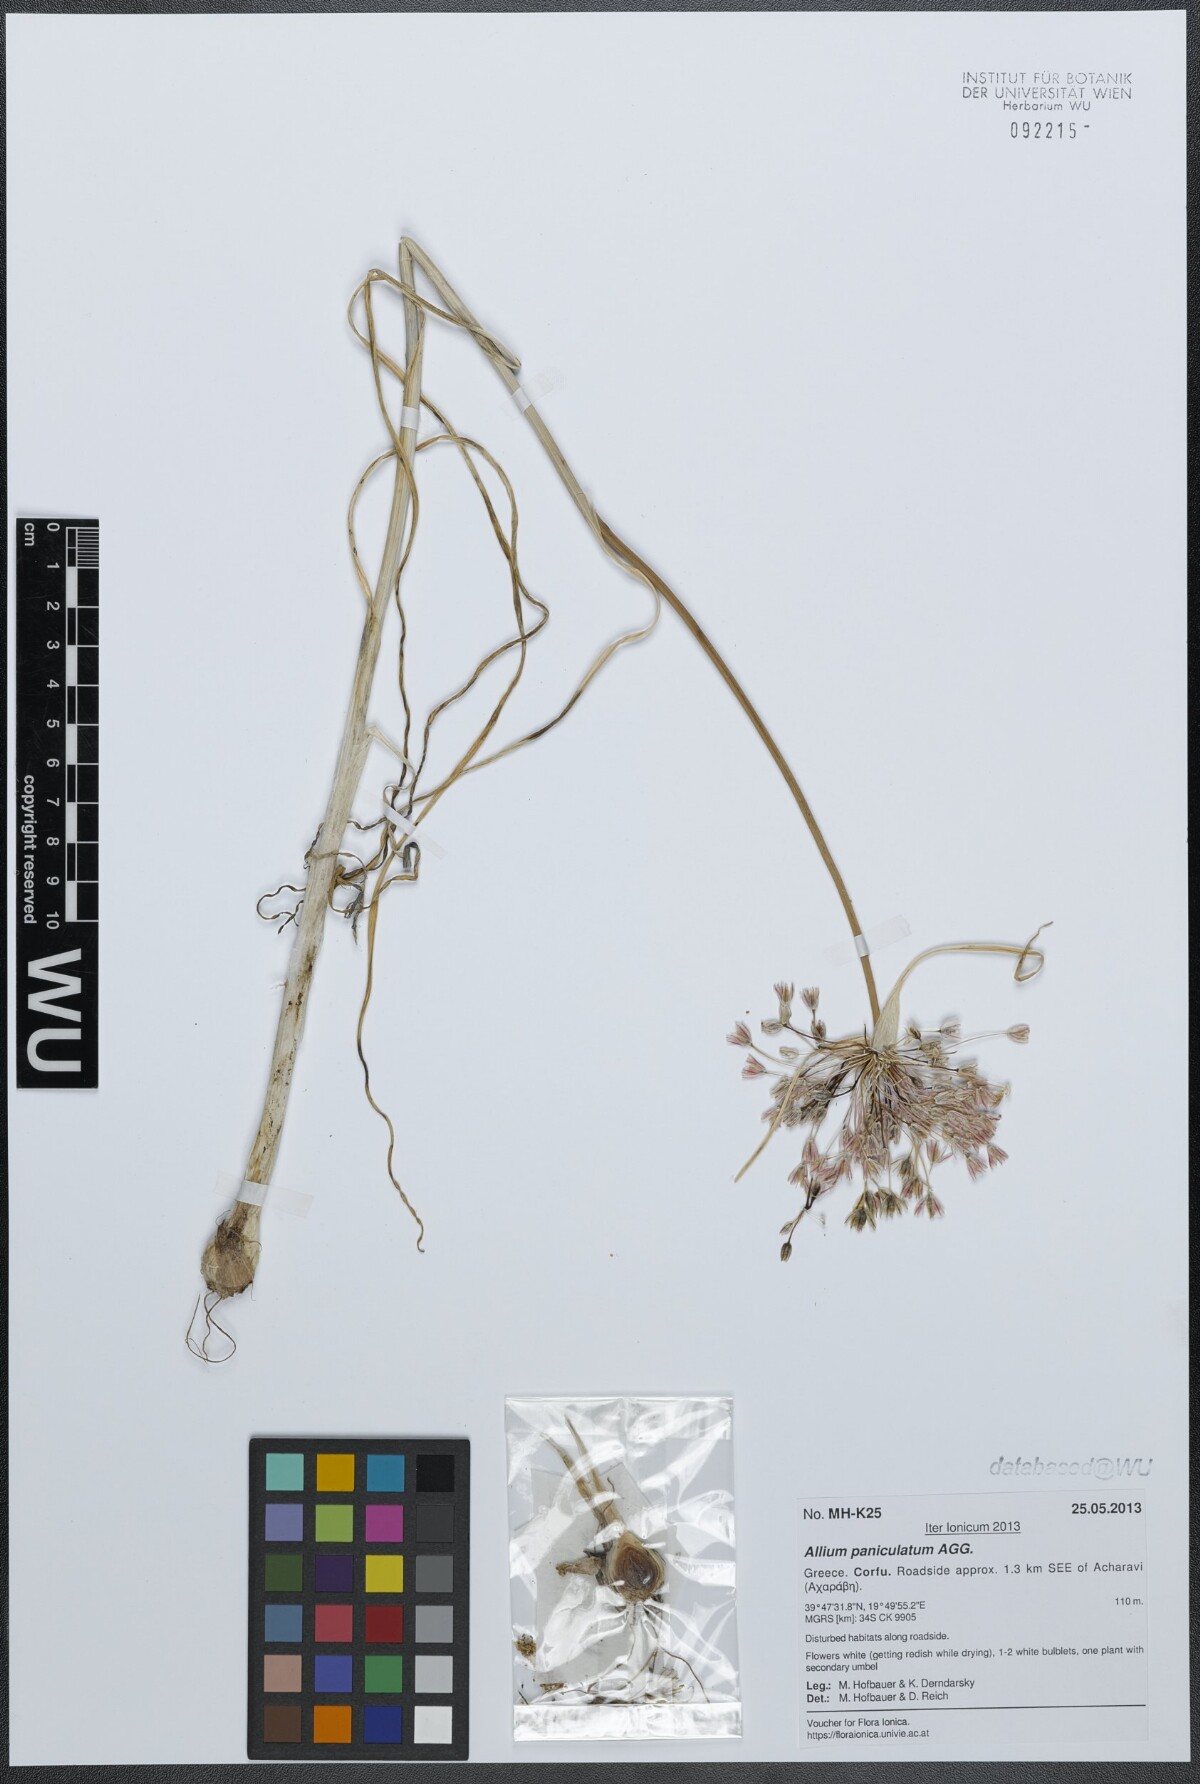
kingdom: Plantae
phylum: Tracheophyta
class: Liliopsida
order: Asparagales
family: Amaryllidaceae
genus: Allium
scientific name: Allium paniculatum
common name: Pale garlic
